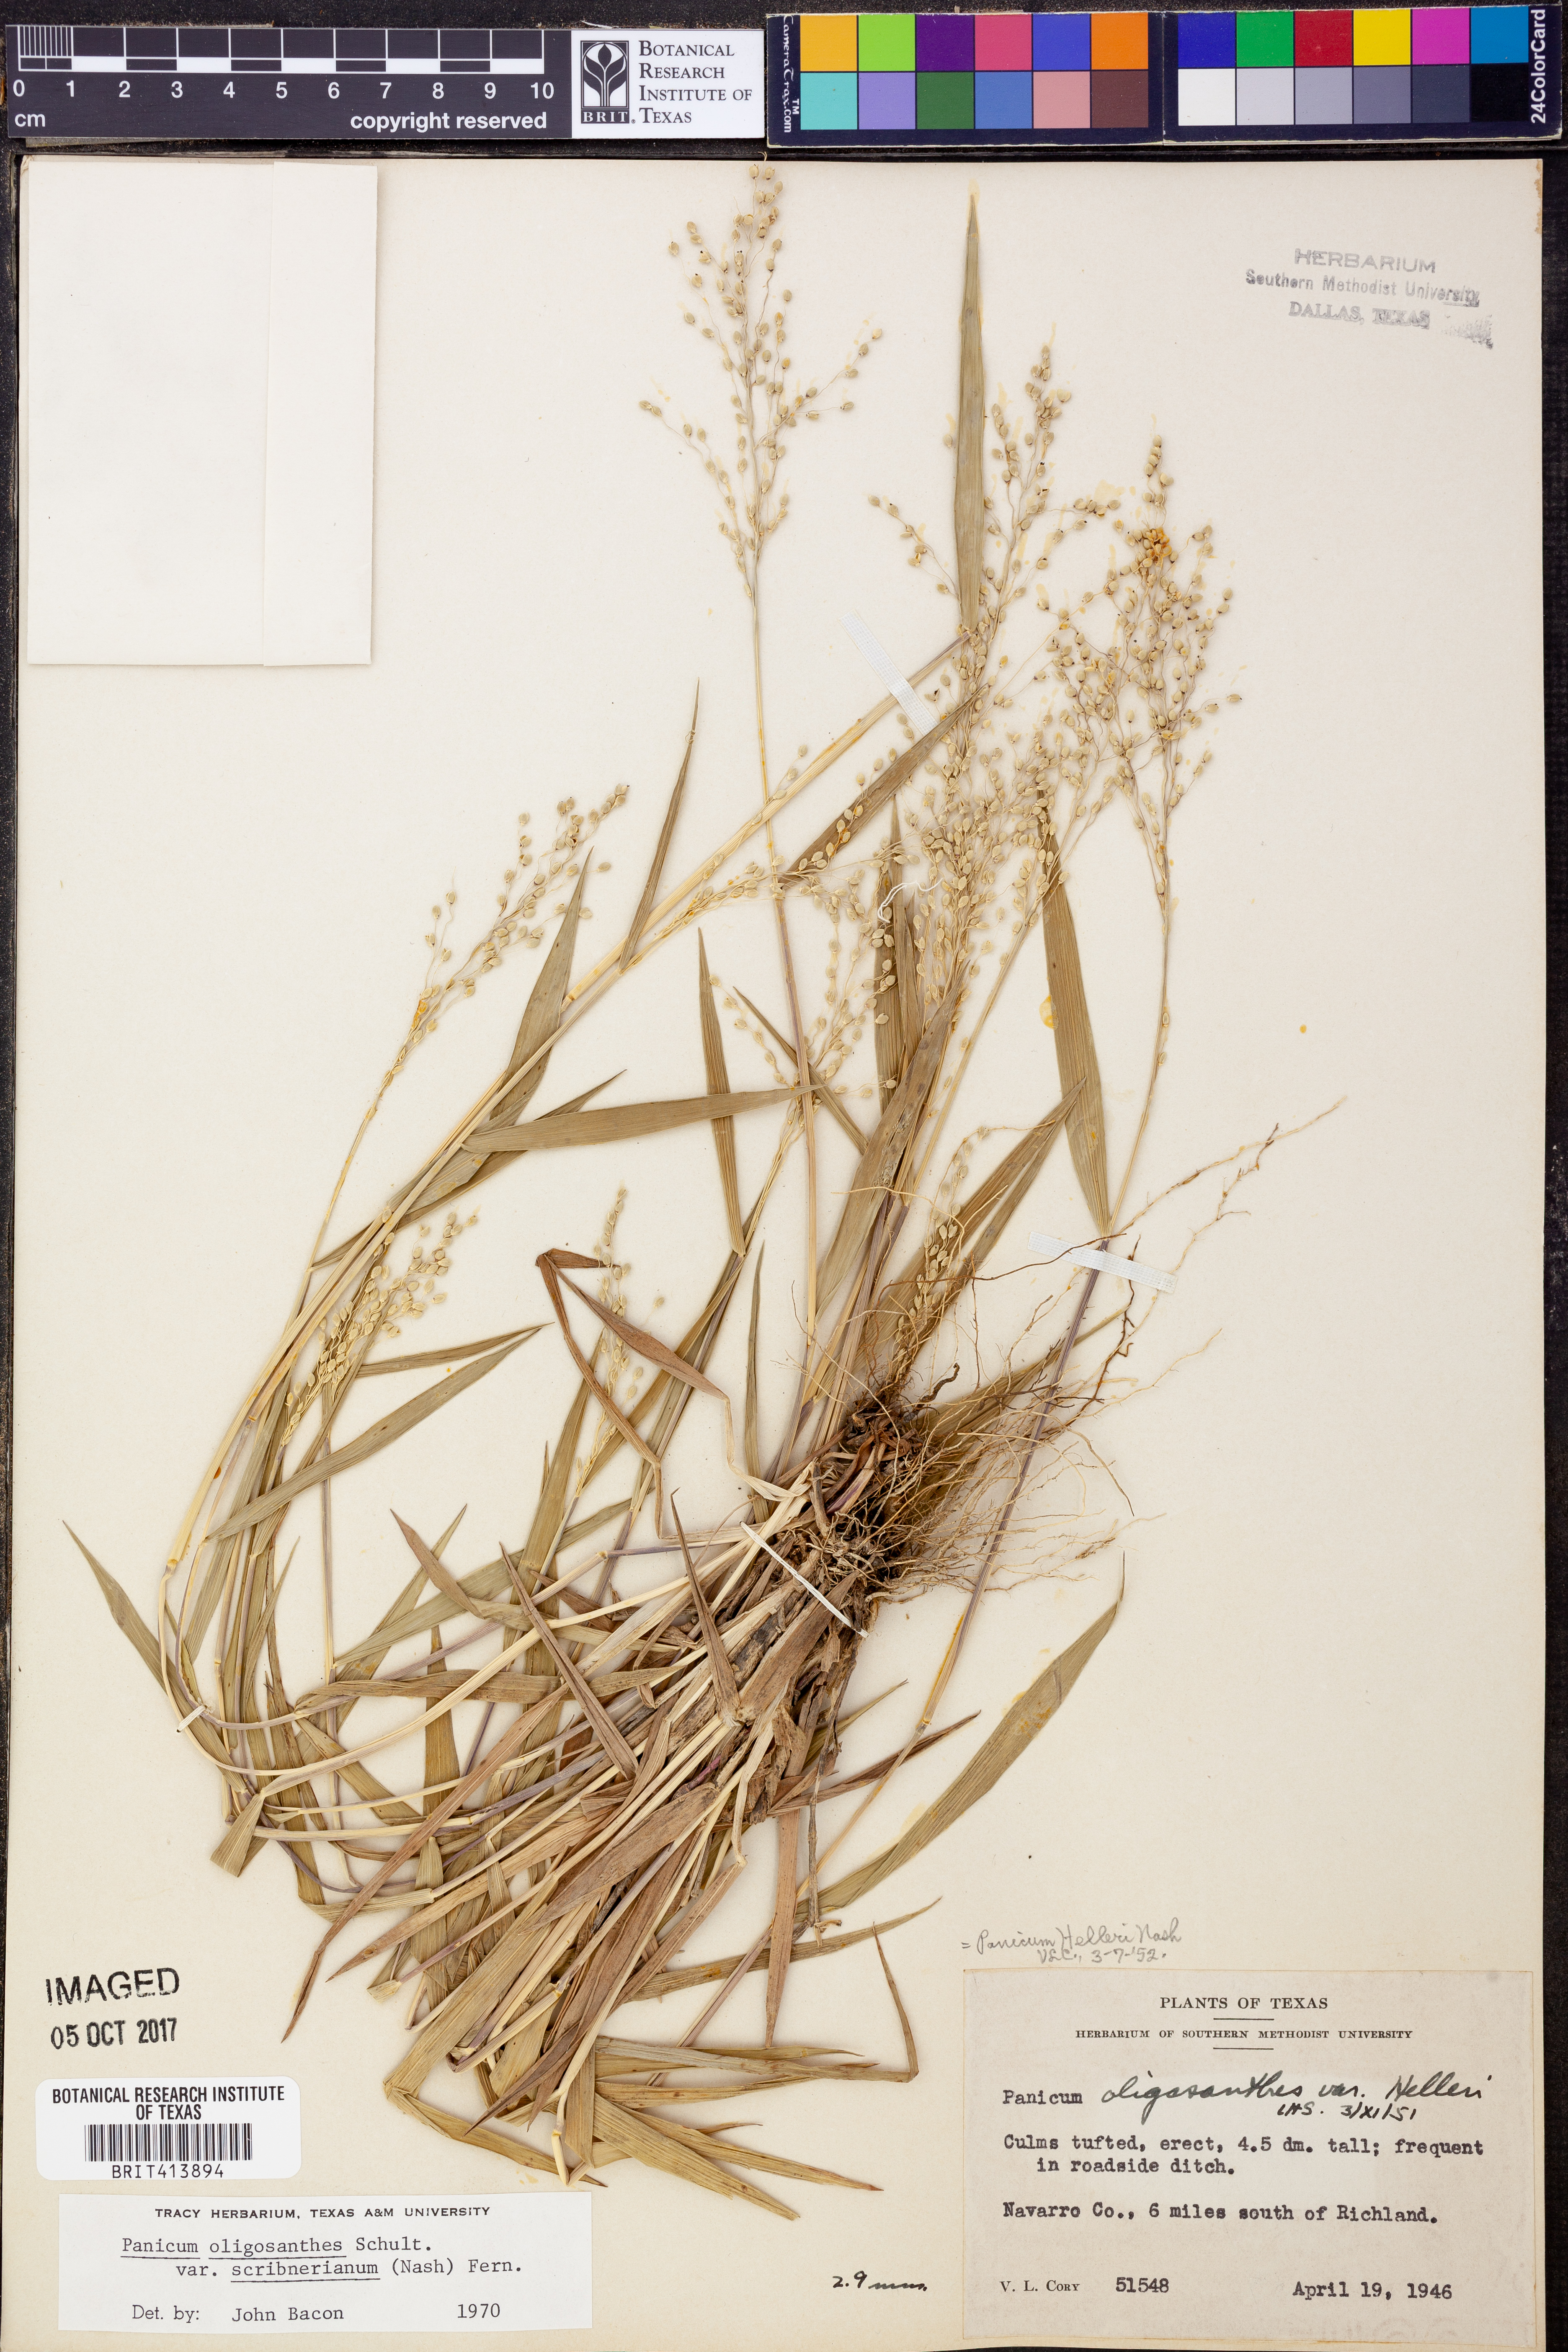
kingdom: Plantae
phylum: Tracheophyta
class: Liliopsida
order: Poales
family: Poaceae
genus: Dichanthelium
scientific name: Dichanthelium scribnerianum
